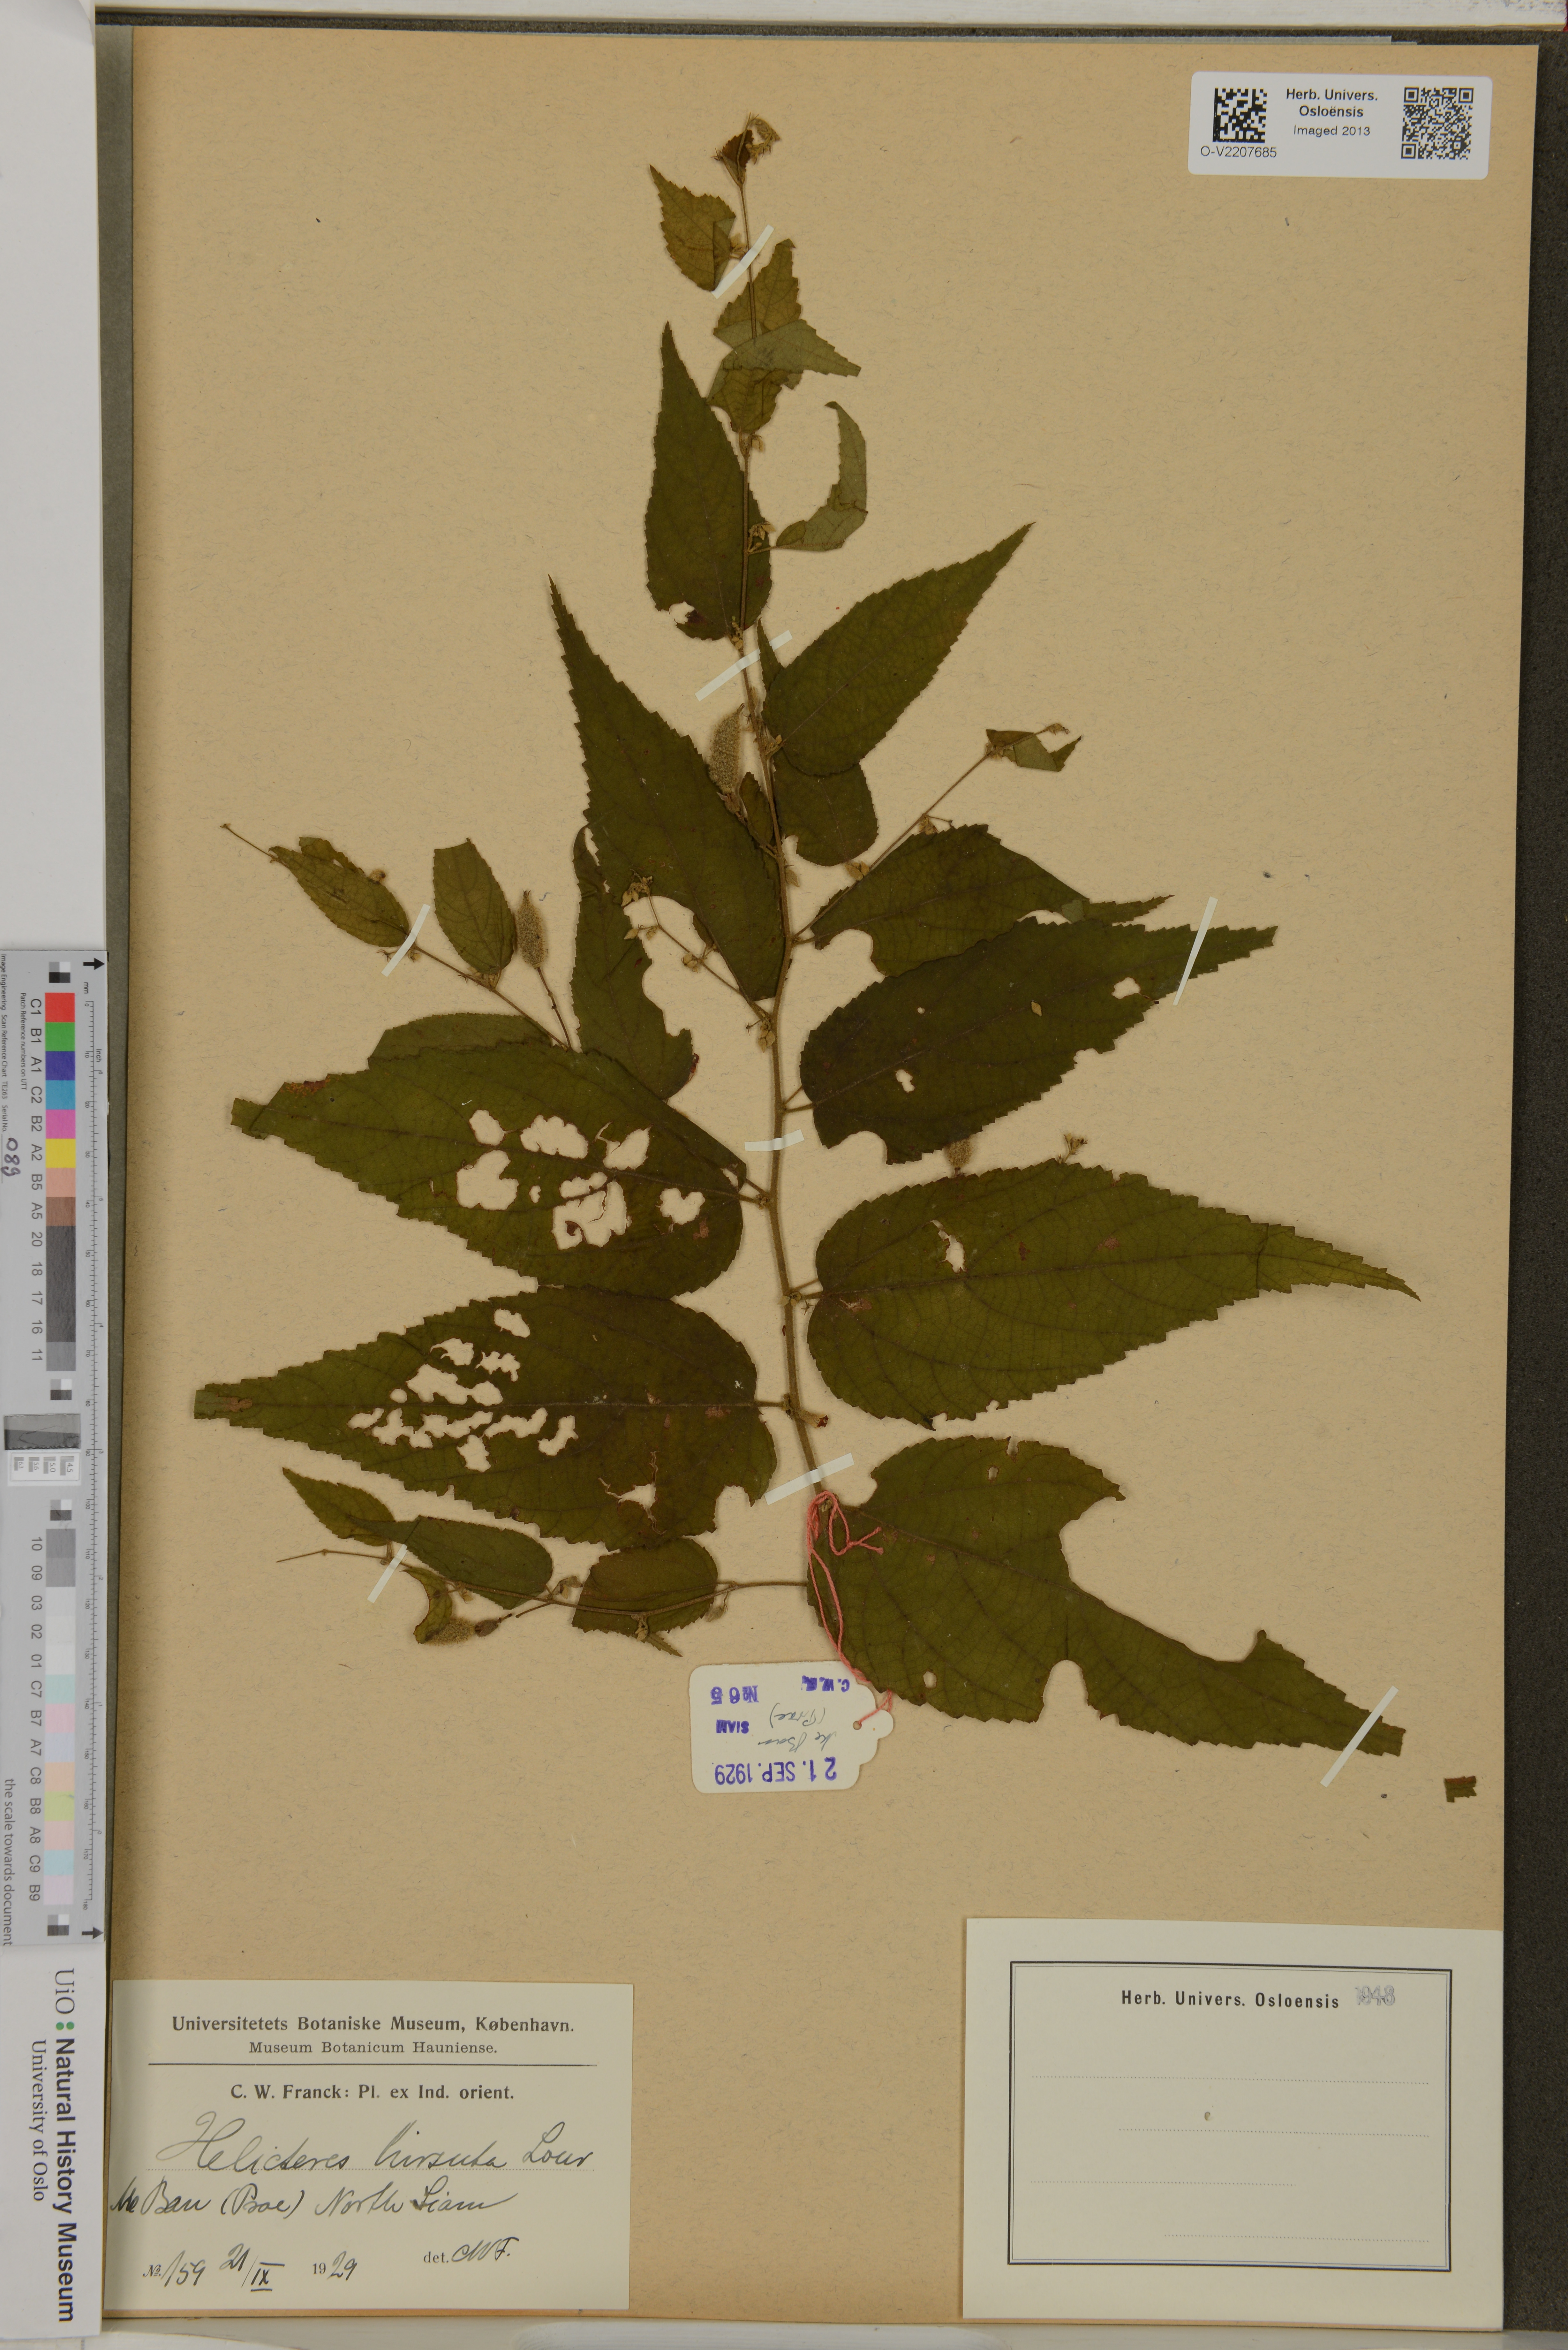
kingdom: Plantae
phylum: Tracheophyta
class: Magnoliopsida
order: Malvales
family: Malvaceae
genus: Helicteres
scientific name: Helicteres hirsuta
